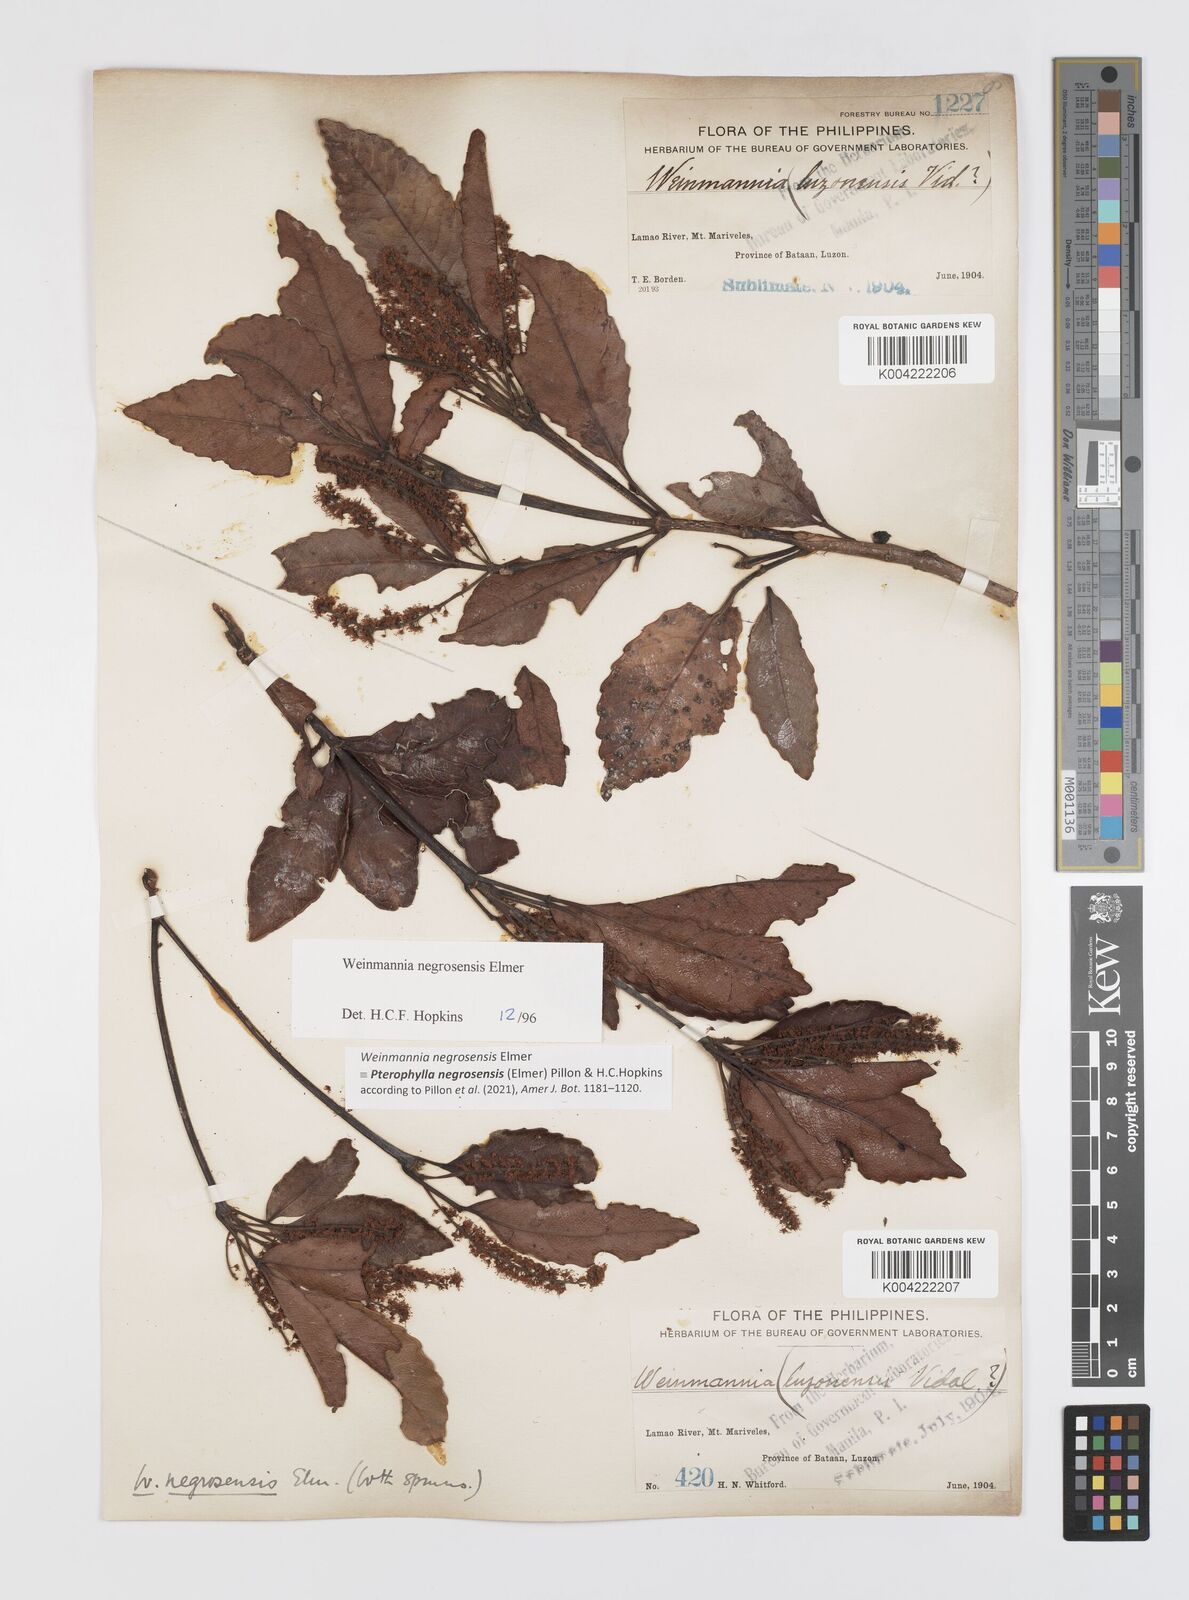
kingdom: Plantae
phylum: Tracheophyta
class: Magnoliopsida
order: Oxalidales
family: Cunoniaceae
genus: Pterophylla
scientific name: Pterophylla negrosensis
